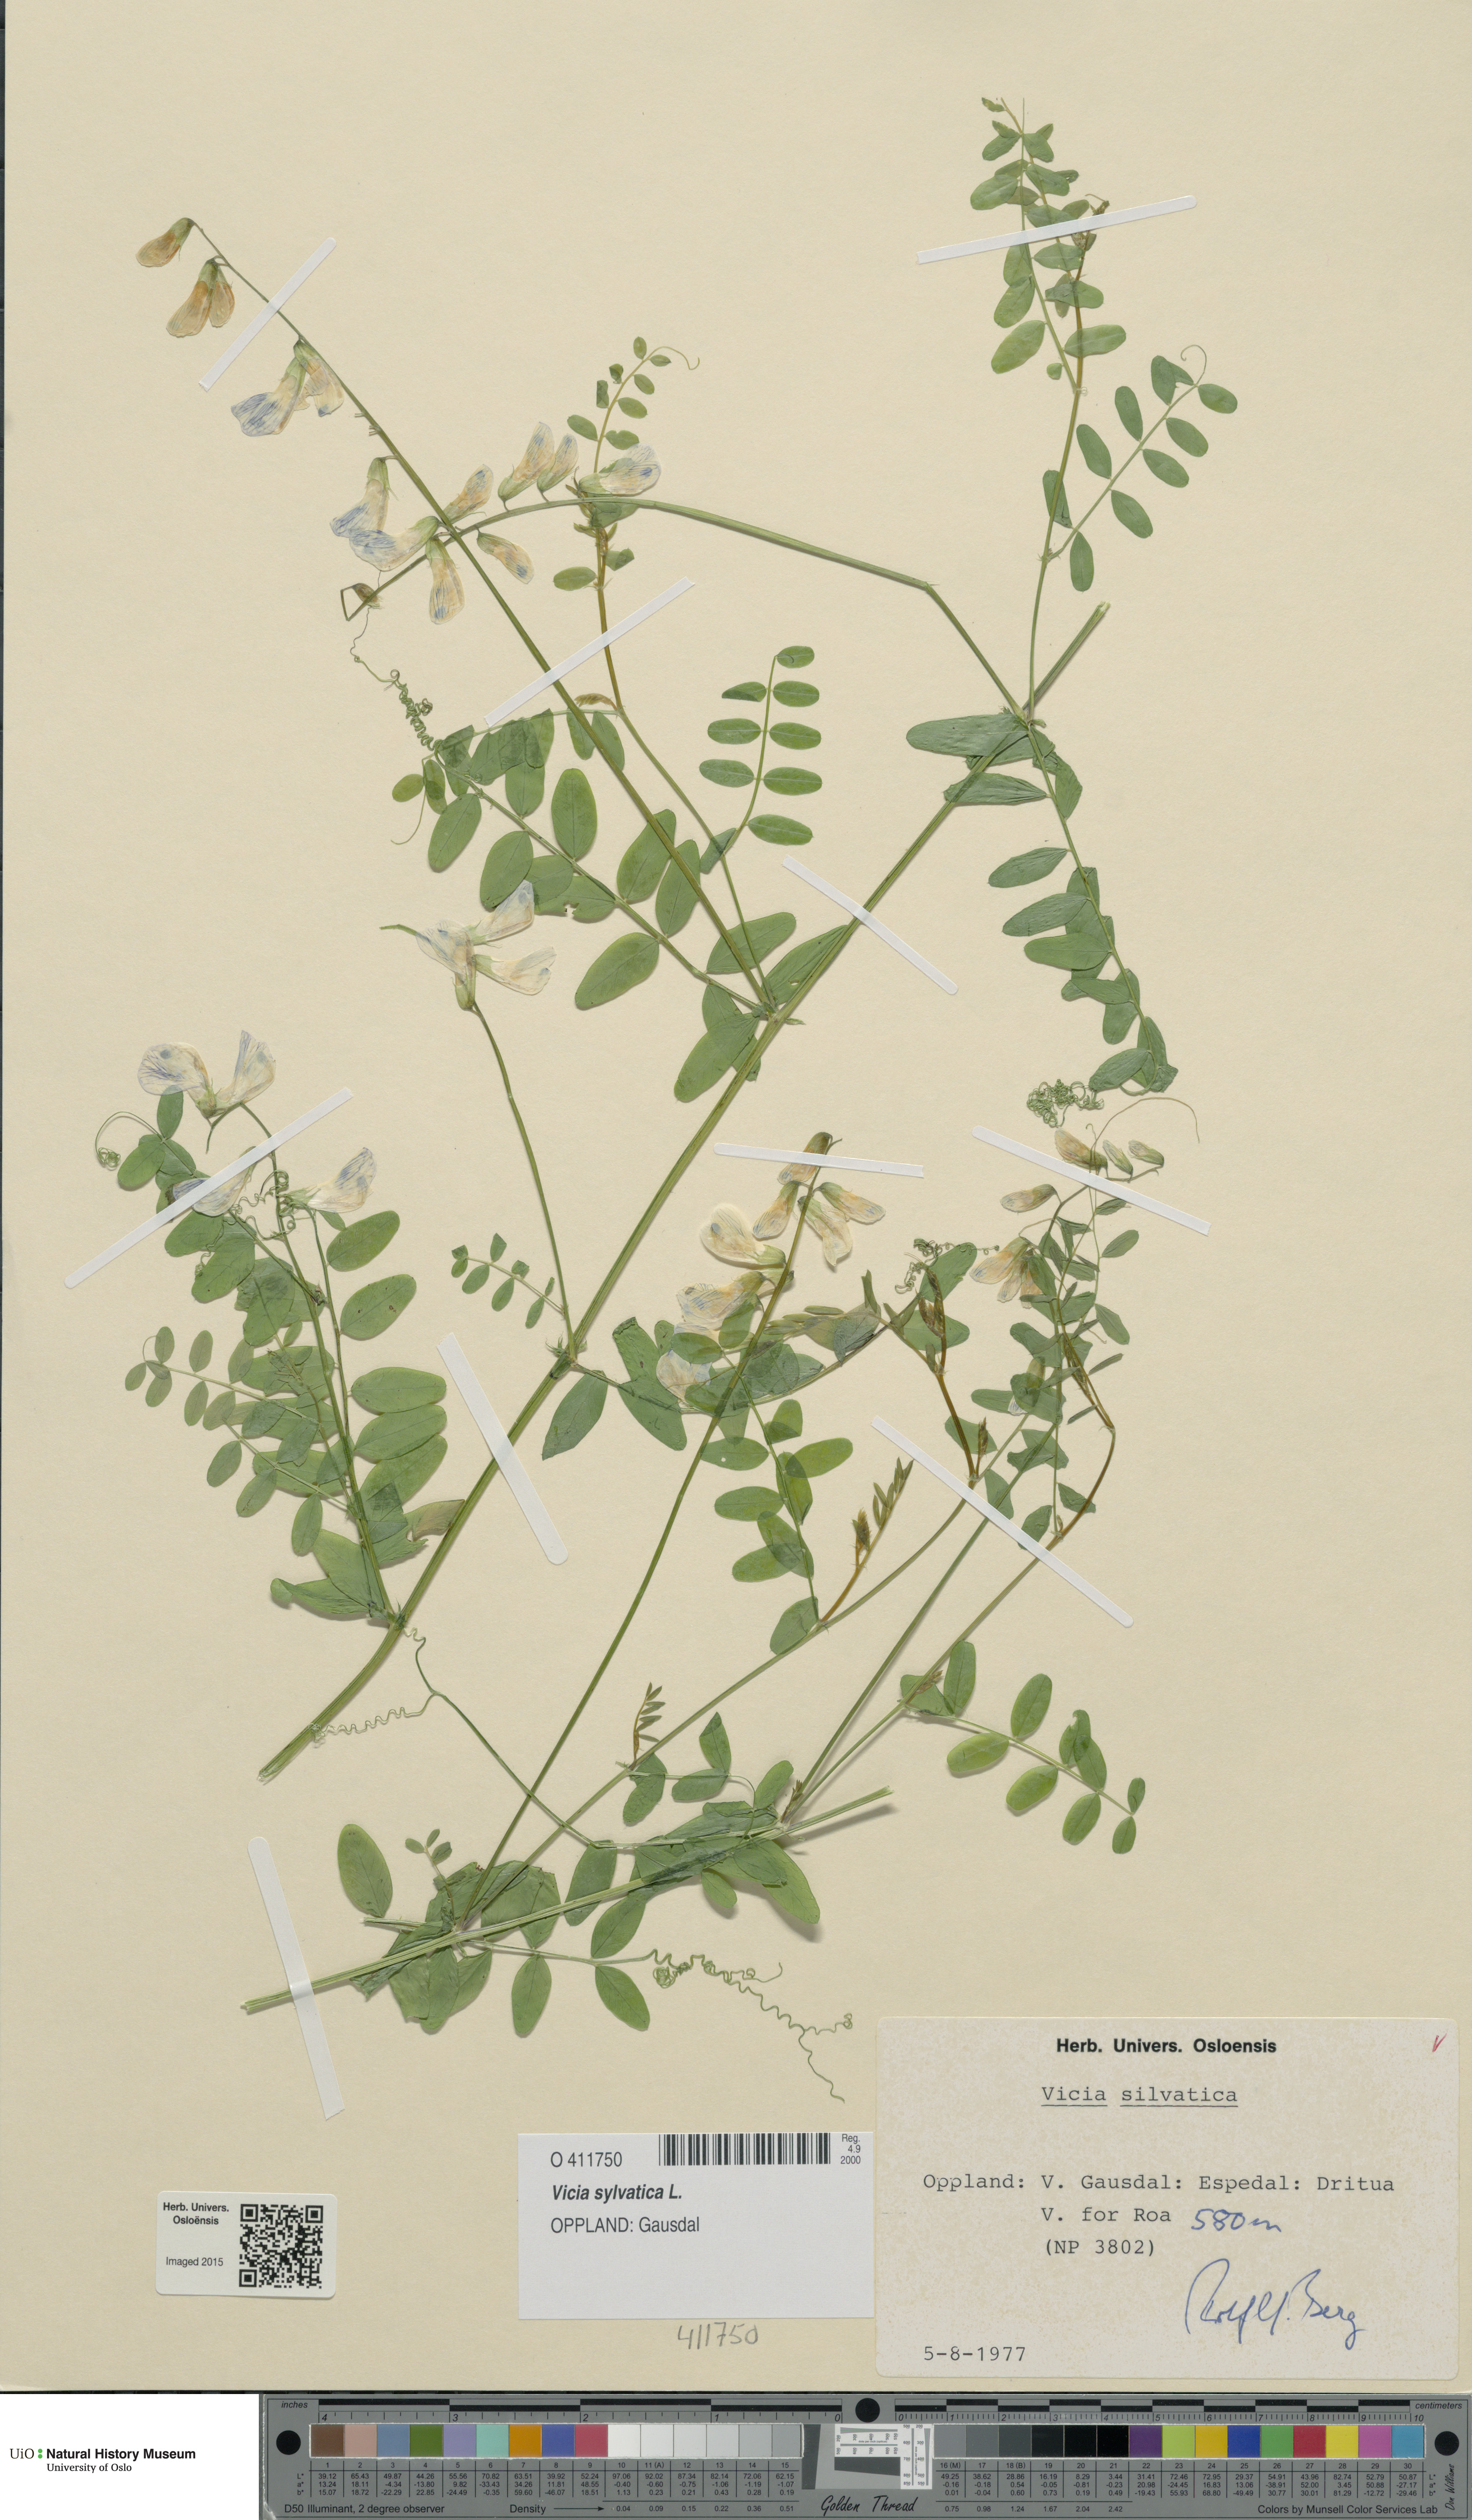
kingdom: Plantae
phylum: Tracheophyta
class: Magnoliopsida
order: Fabales
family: Fabaceae
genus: Vicia
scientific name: Vicia sylvatica
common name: Wood vetch
